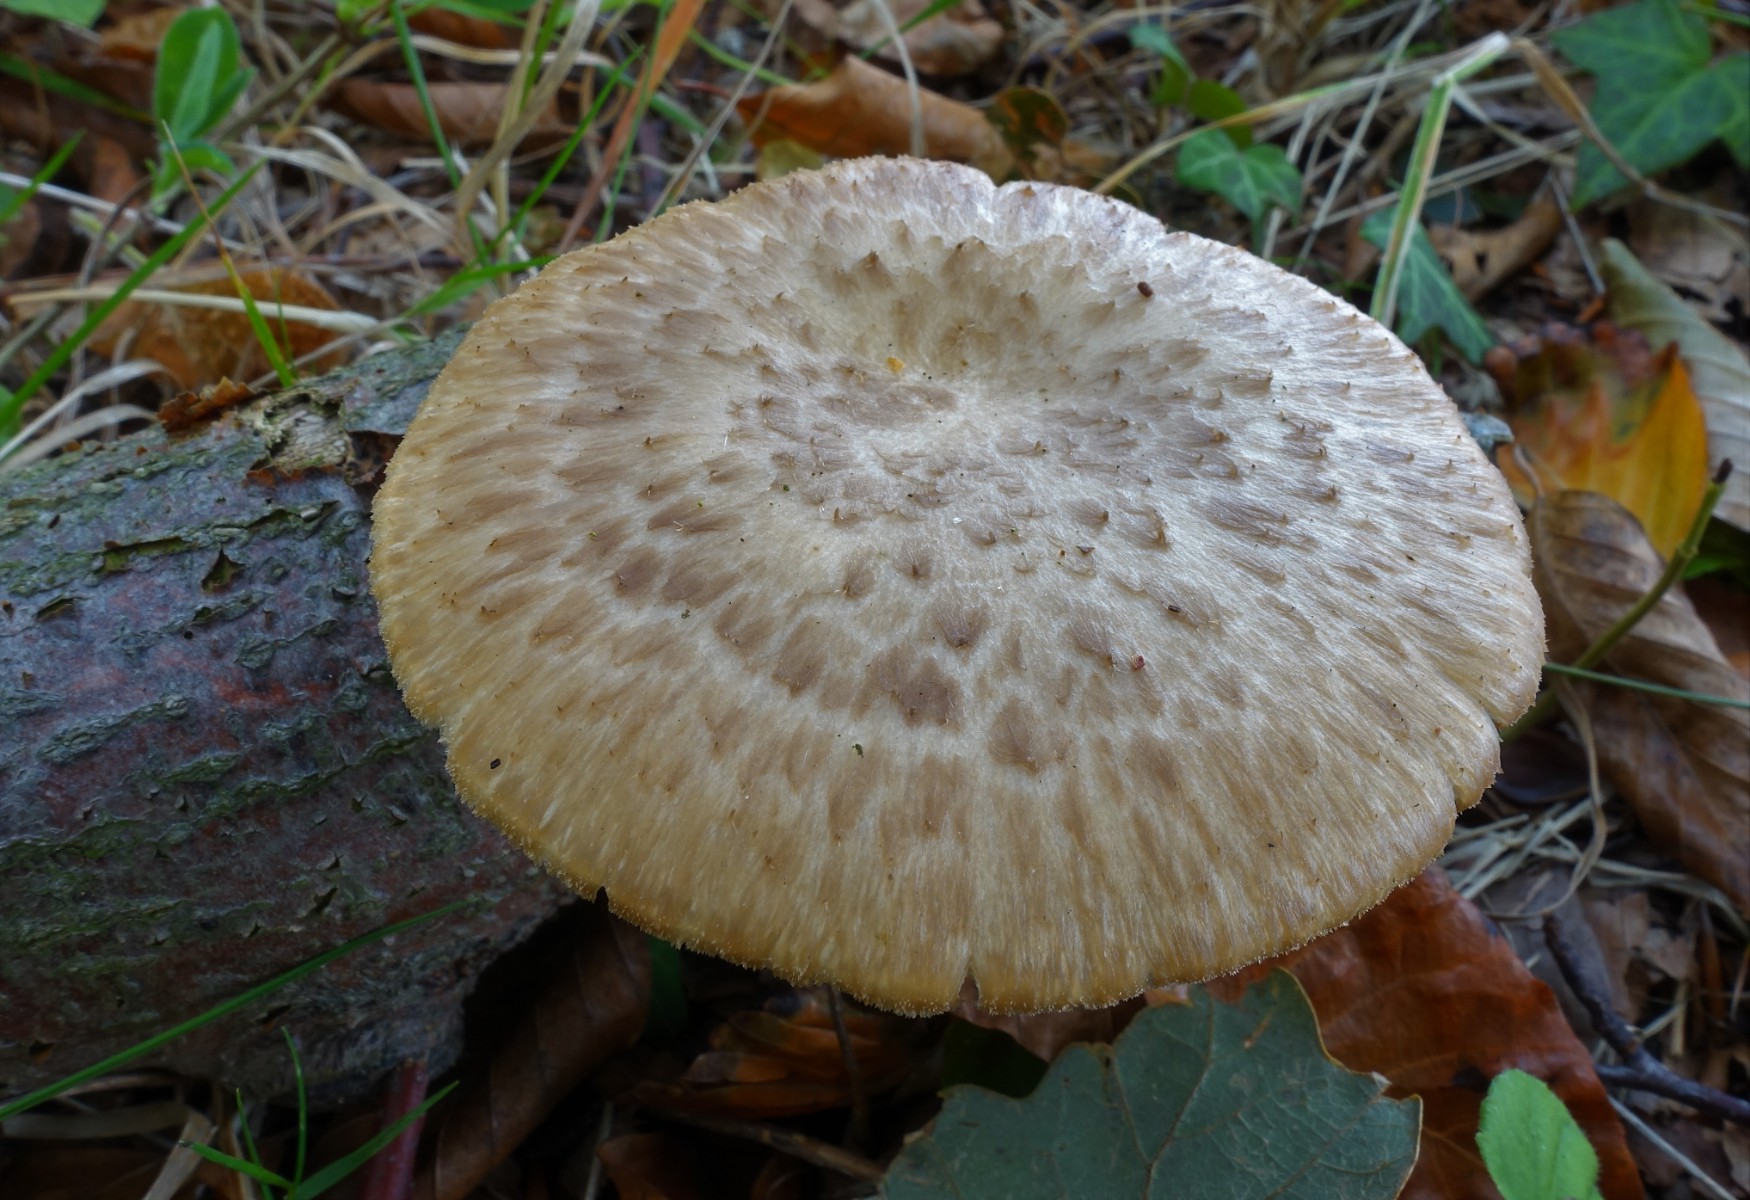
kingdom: Fungi
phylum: Basidiomycota
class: Agaricomycetes
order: Polyporales
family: Polyporaceae
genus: Polyporus
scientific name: Polyporus tuberaster
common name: knoldet stilkporesvamp
